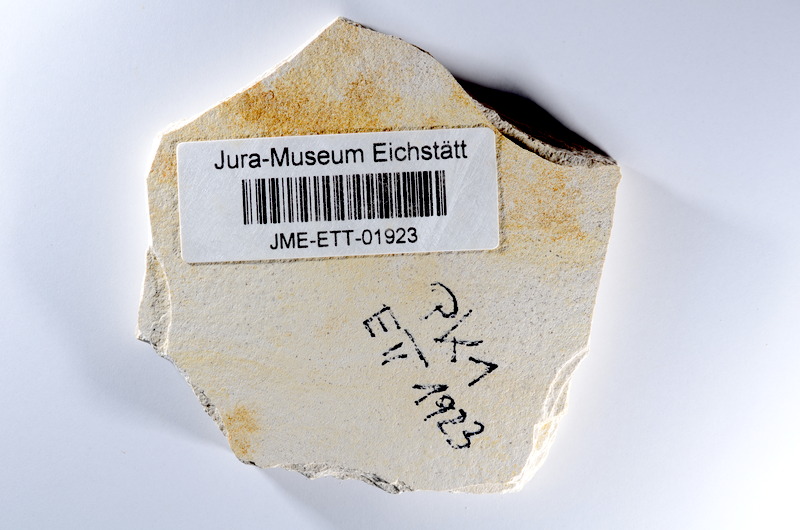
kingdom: Animalia
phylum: Chordata
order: Salmoniformes
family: Orthogonikleithridae
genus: Orthogonikleithrus
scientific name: Orthogonikleithrus hoelli
